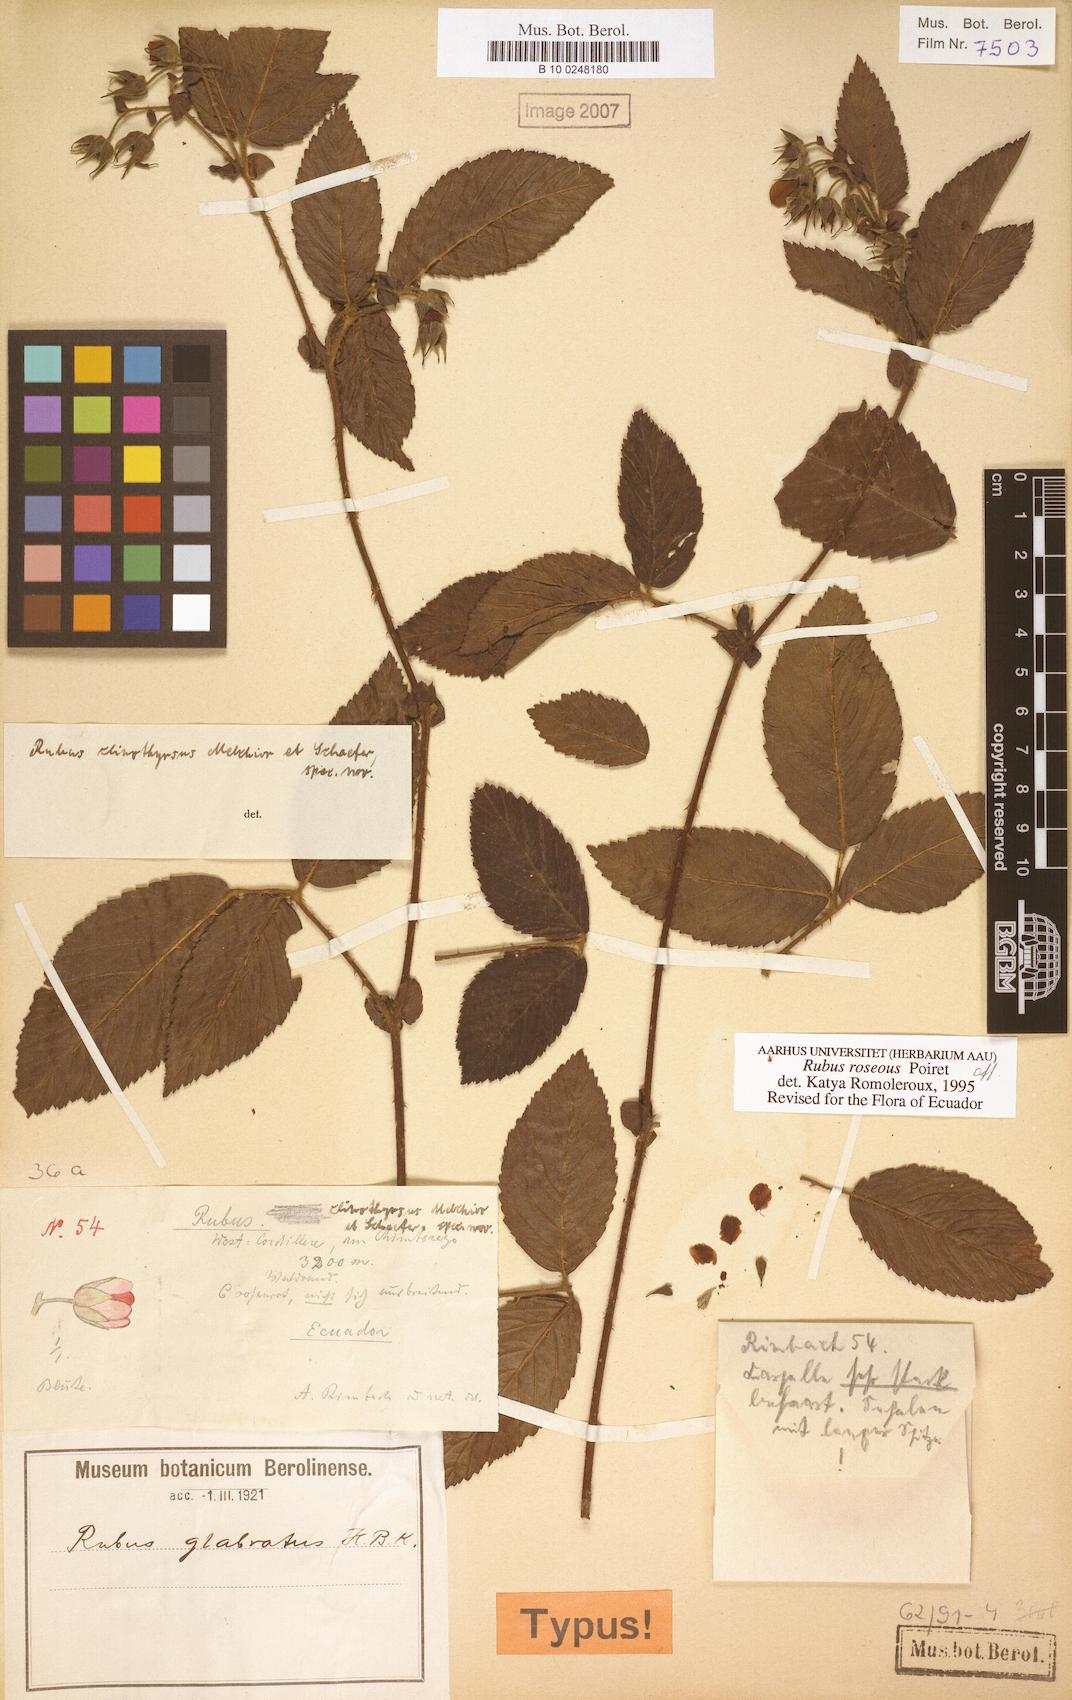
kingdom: Plantae
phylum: Tracheophyta
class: Magnoliopsida
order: Rosales
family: Rosaceae
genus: Rubus
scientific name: Rubus roseus
